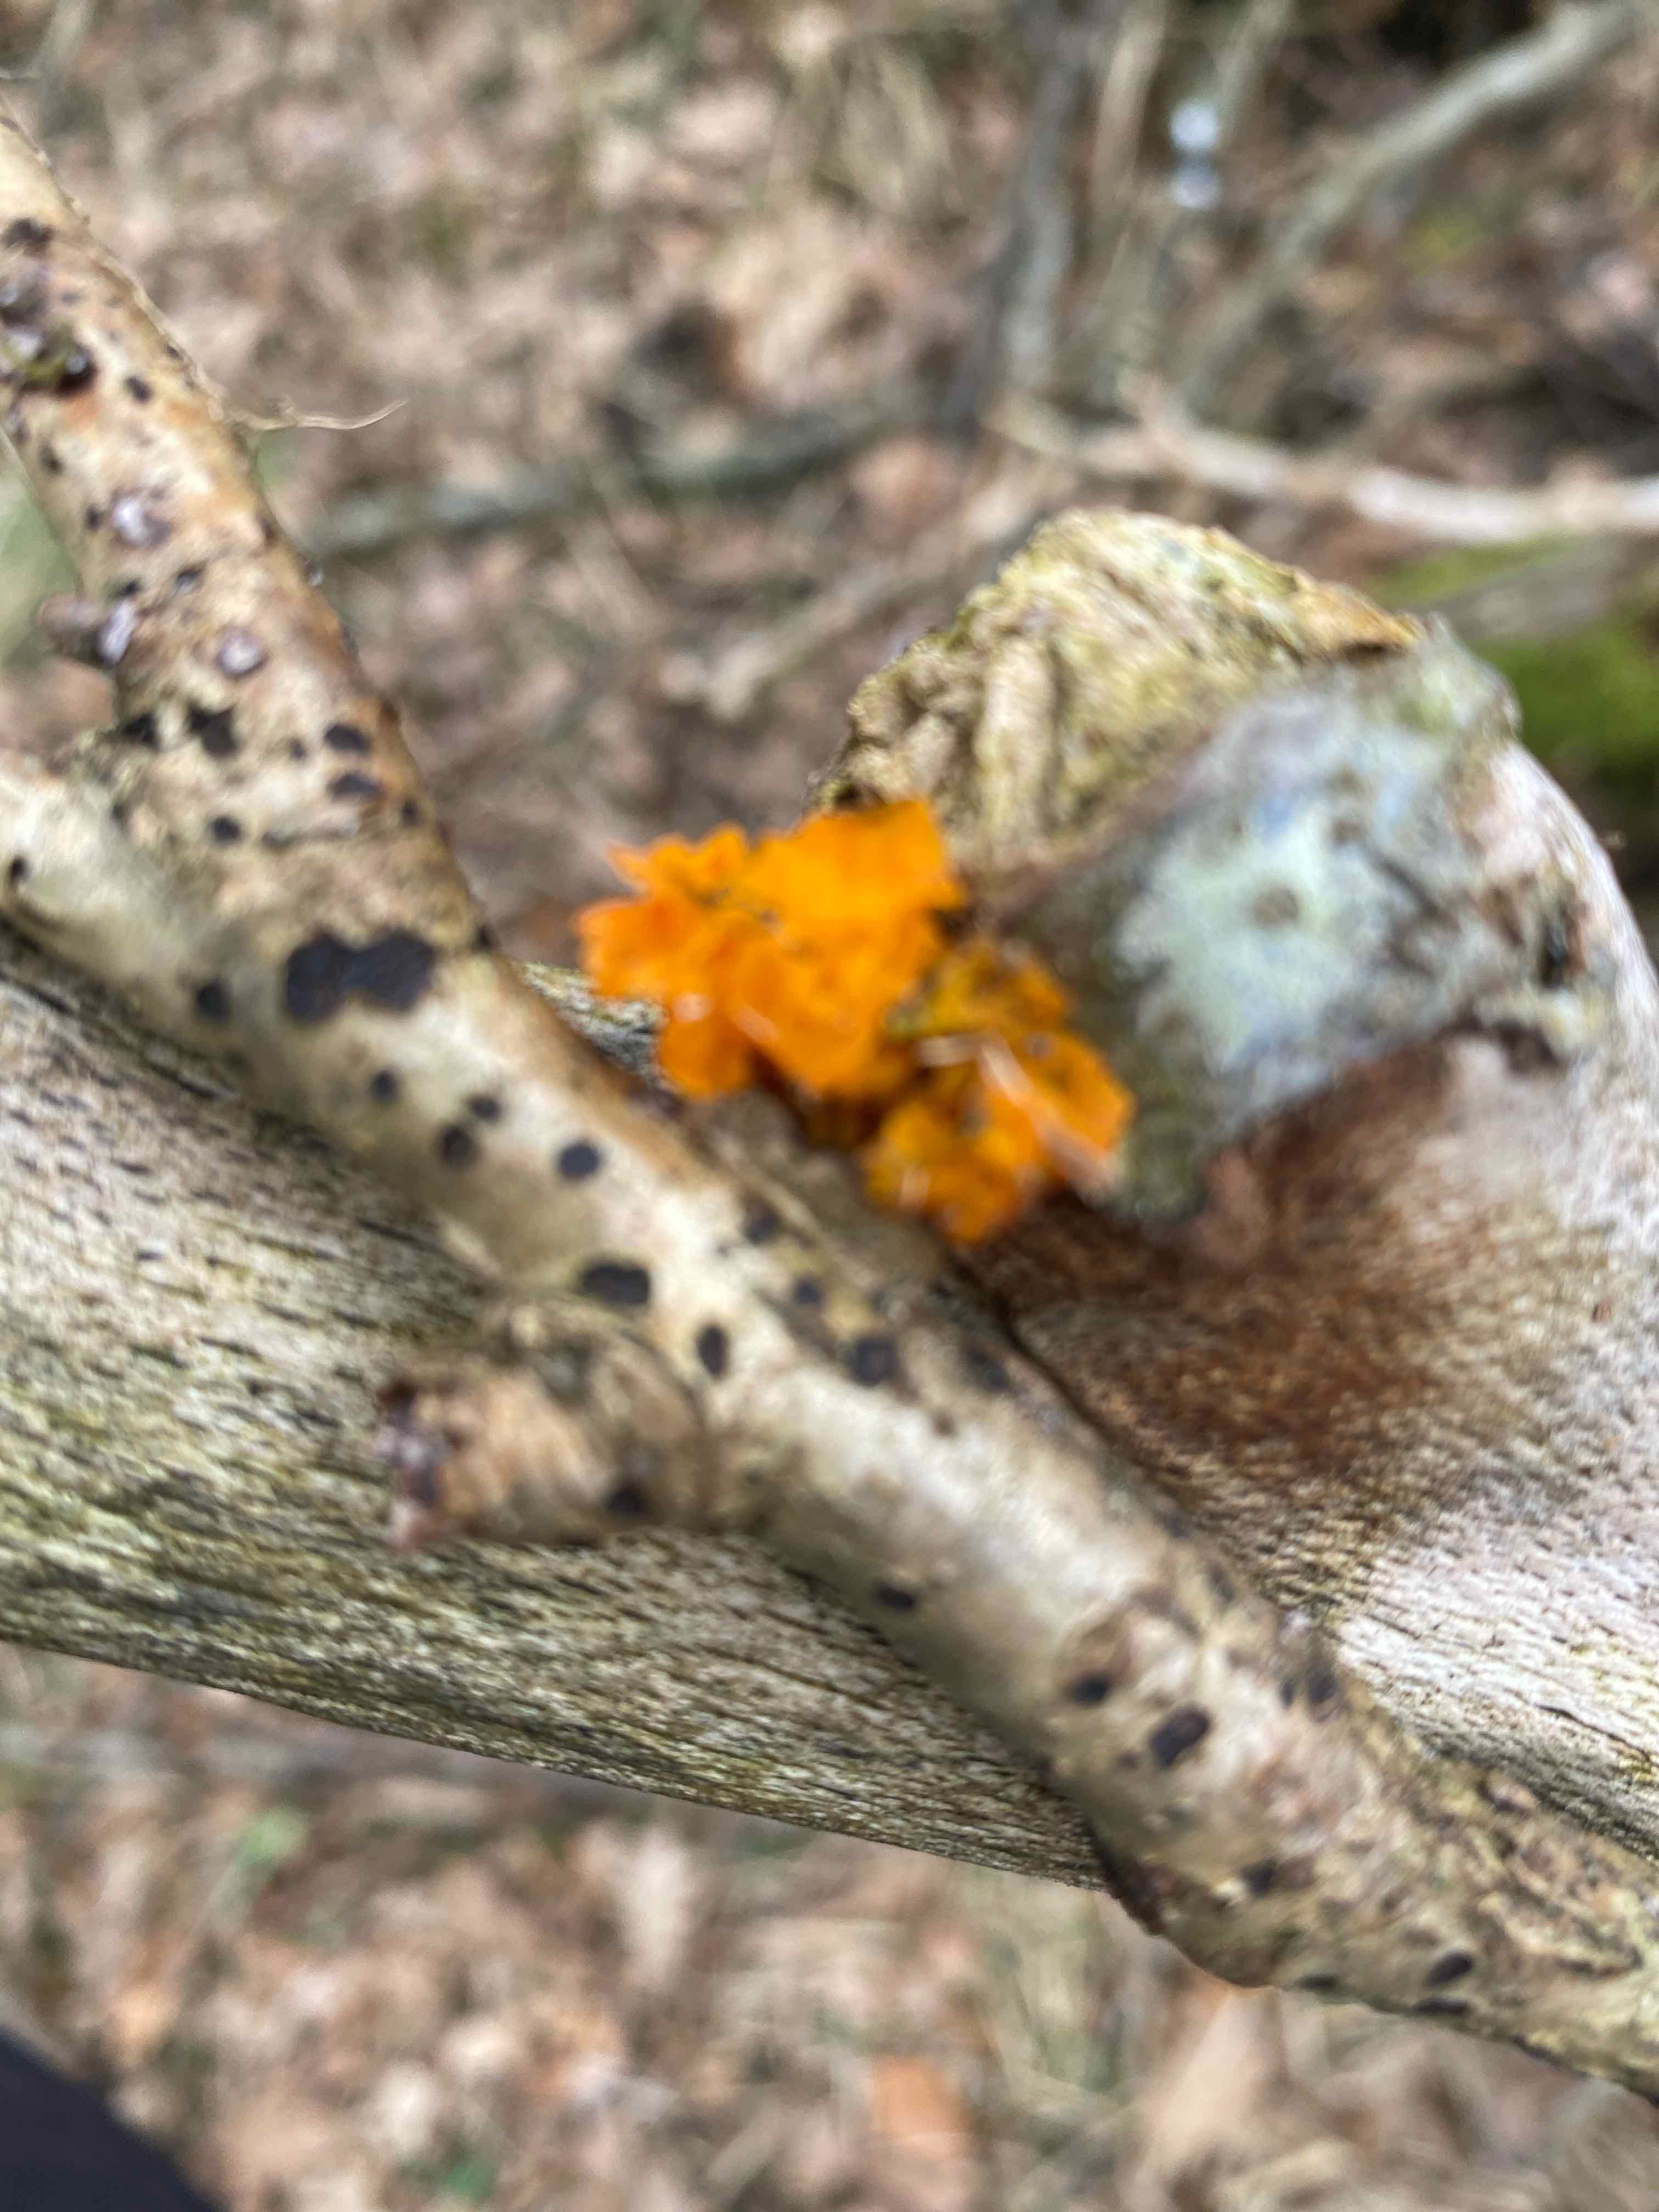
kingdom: Fungi
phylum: Basidiomycota
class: Tremellomycetes
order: Tremellales
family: Tremellaceae
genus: Tremella
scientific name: Tremella mesenterica
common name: gul bævresvamp
